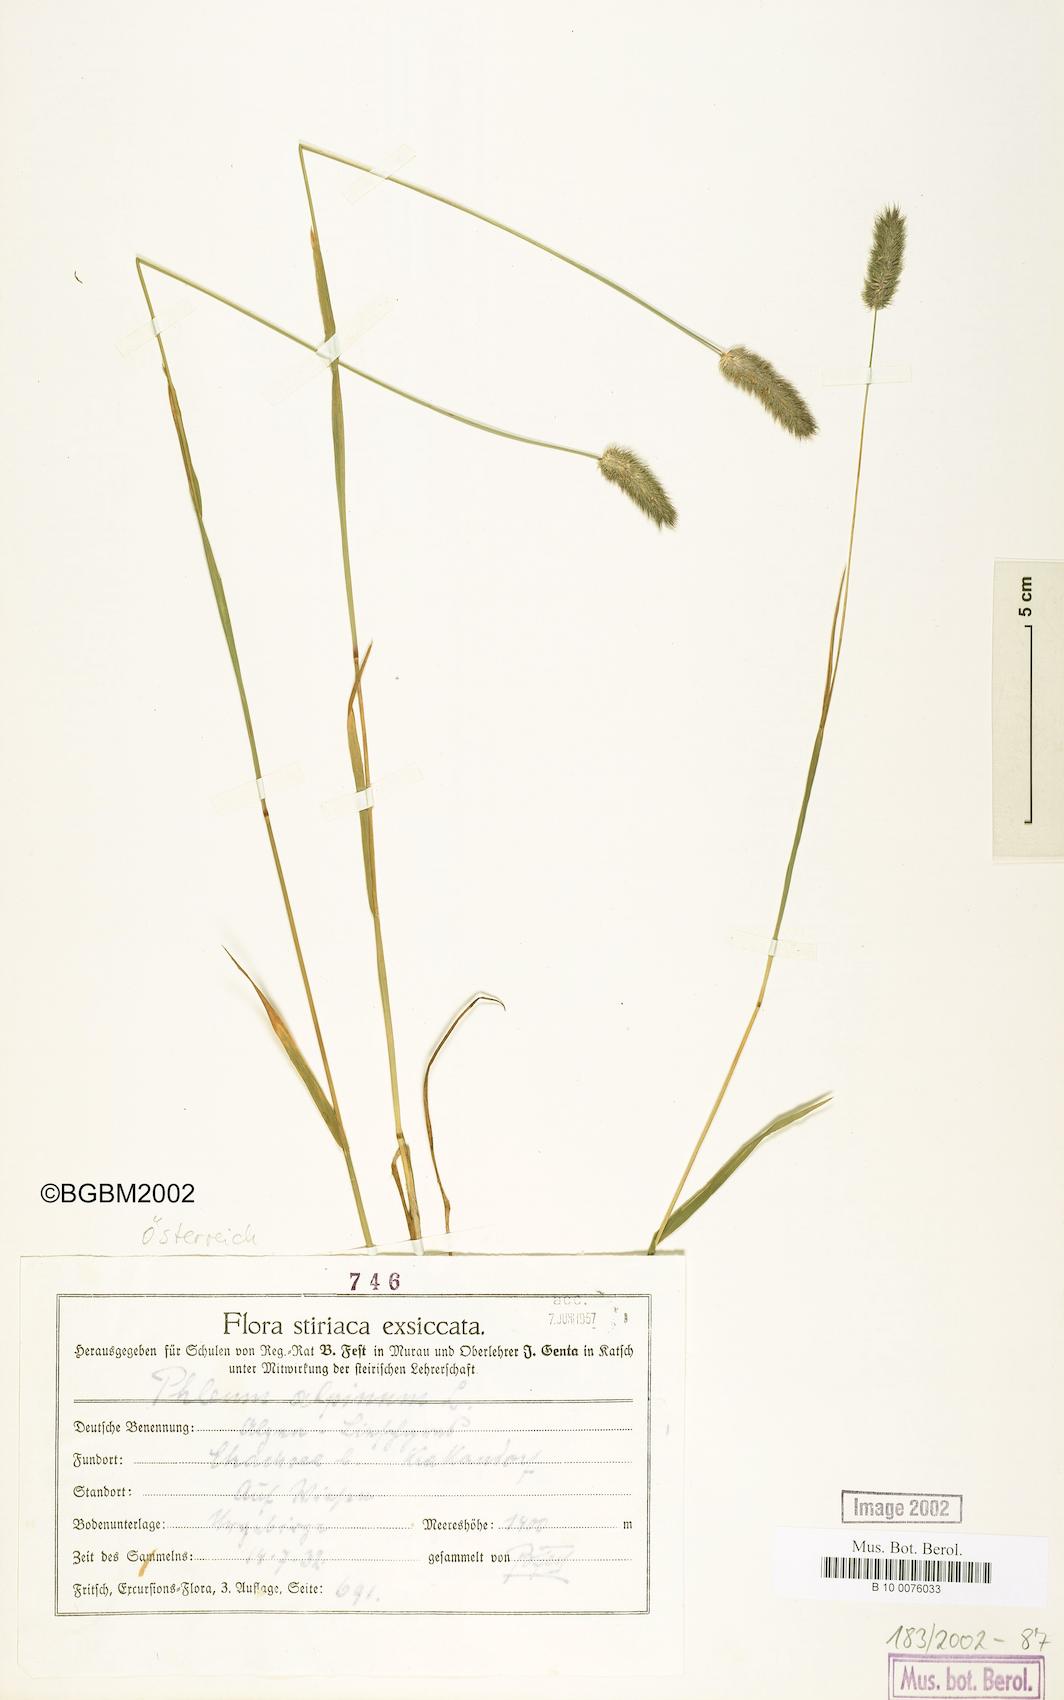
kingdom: Plantae
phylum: Tracheophyta
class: Liliopsida
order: Poales
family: Poaceae
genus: Phleum
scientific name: Phleum alpinum
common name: Alpine cat's-tail
